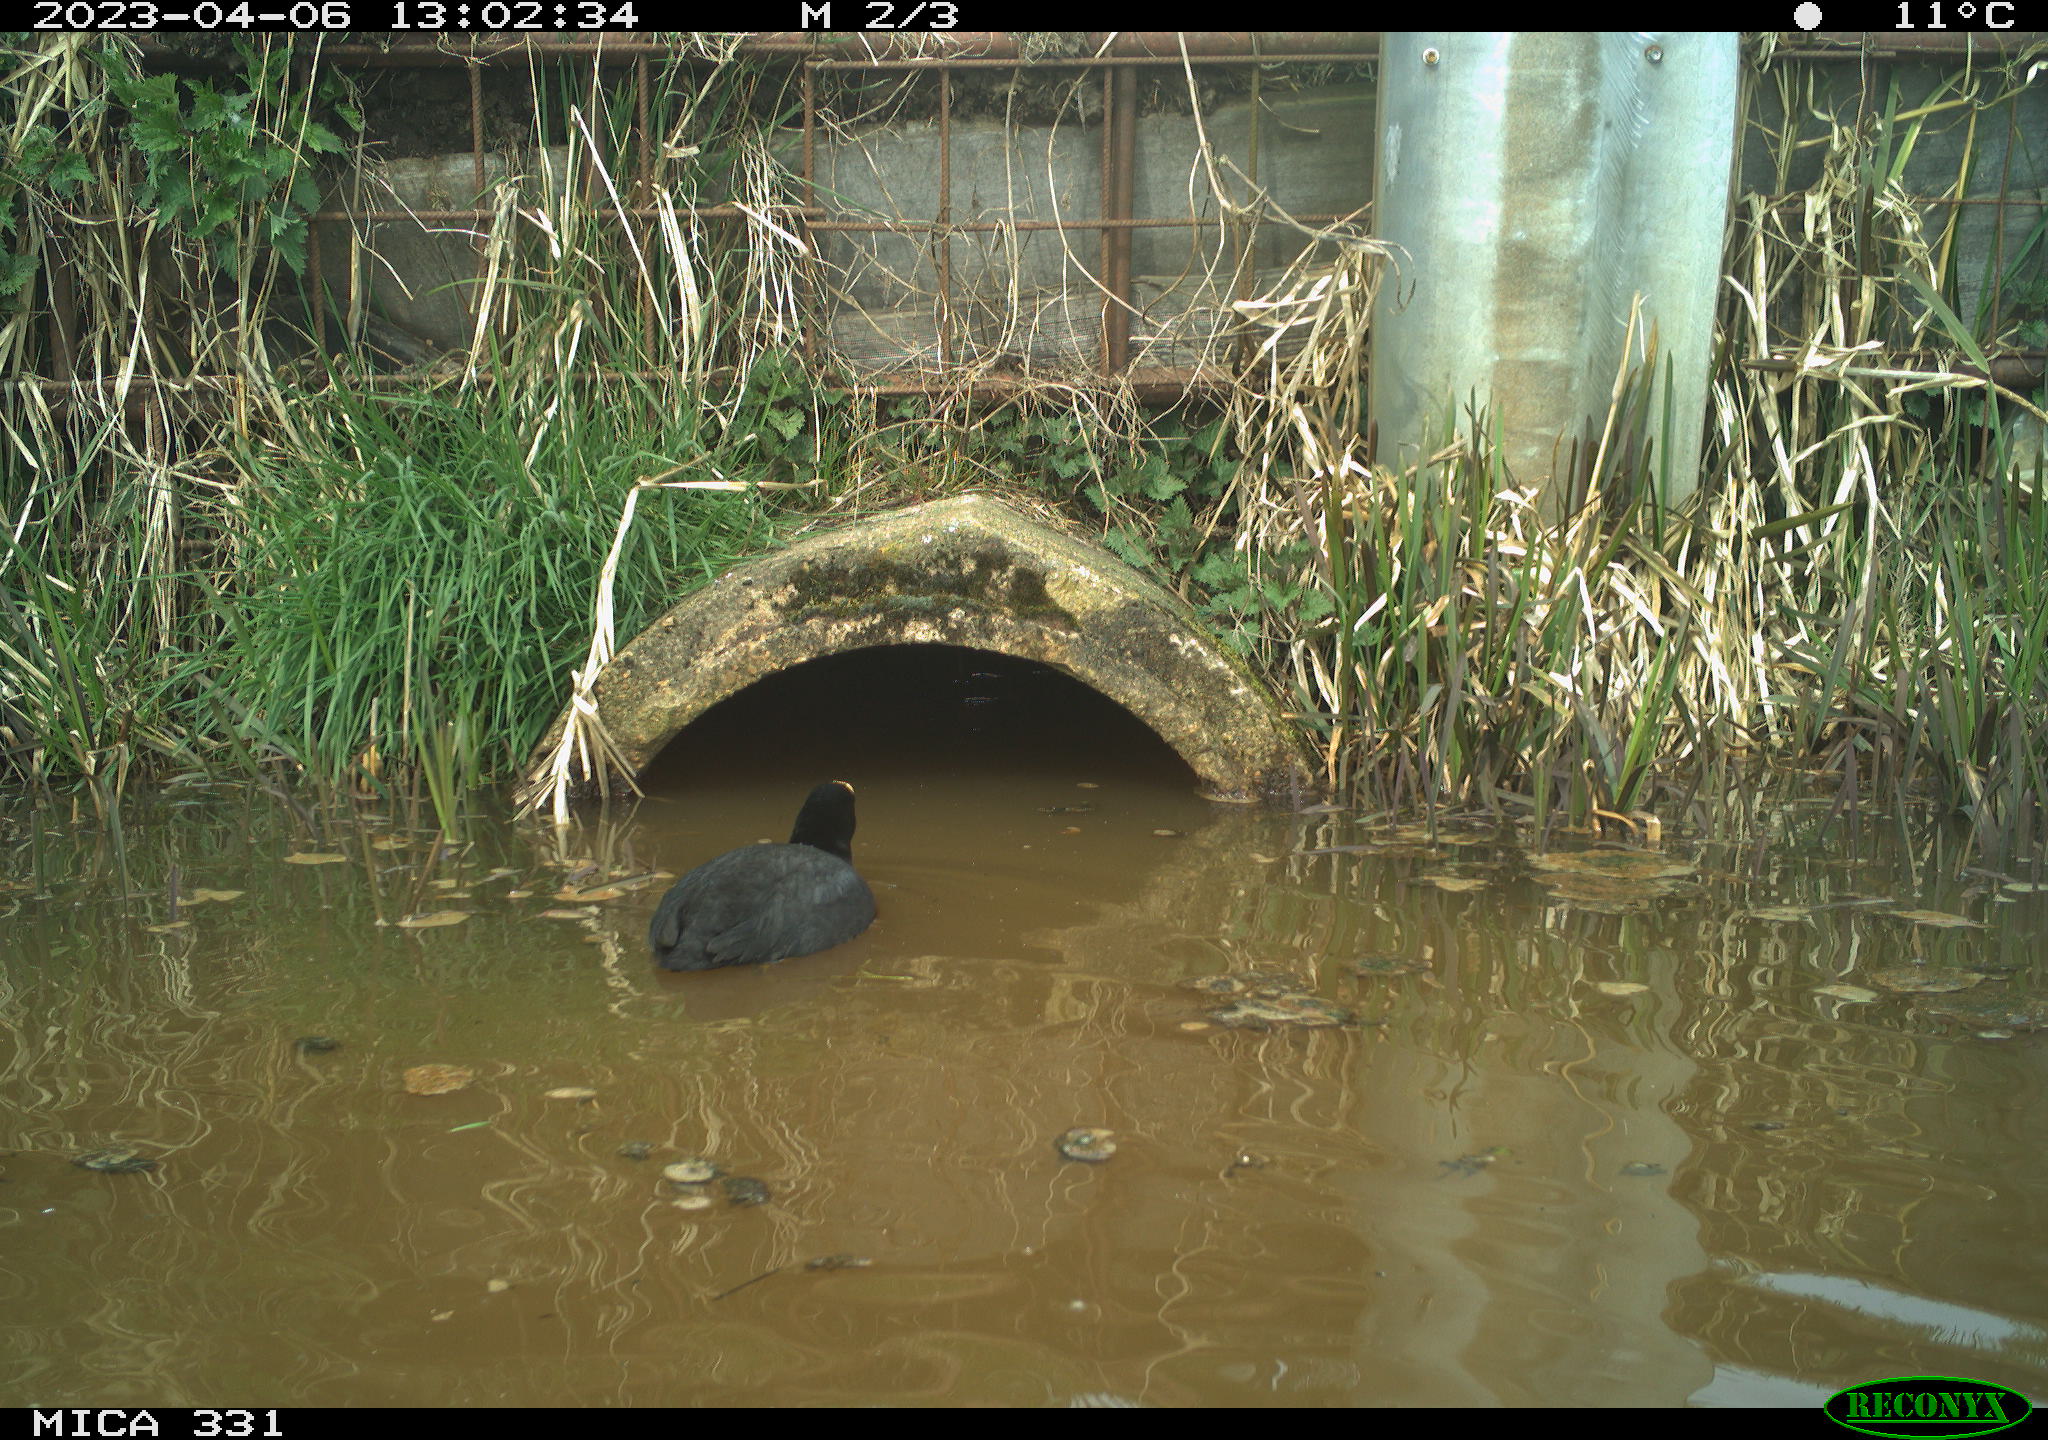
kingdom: Animalia
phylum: Chordata
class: Aves
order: Gruiformes
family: Rallidae
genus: Fulica
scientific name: Fulica atra
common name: Eurasian coot
